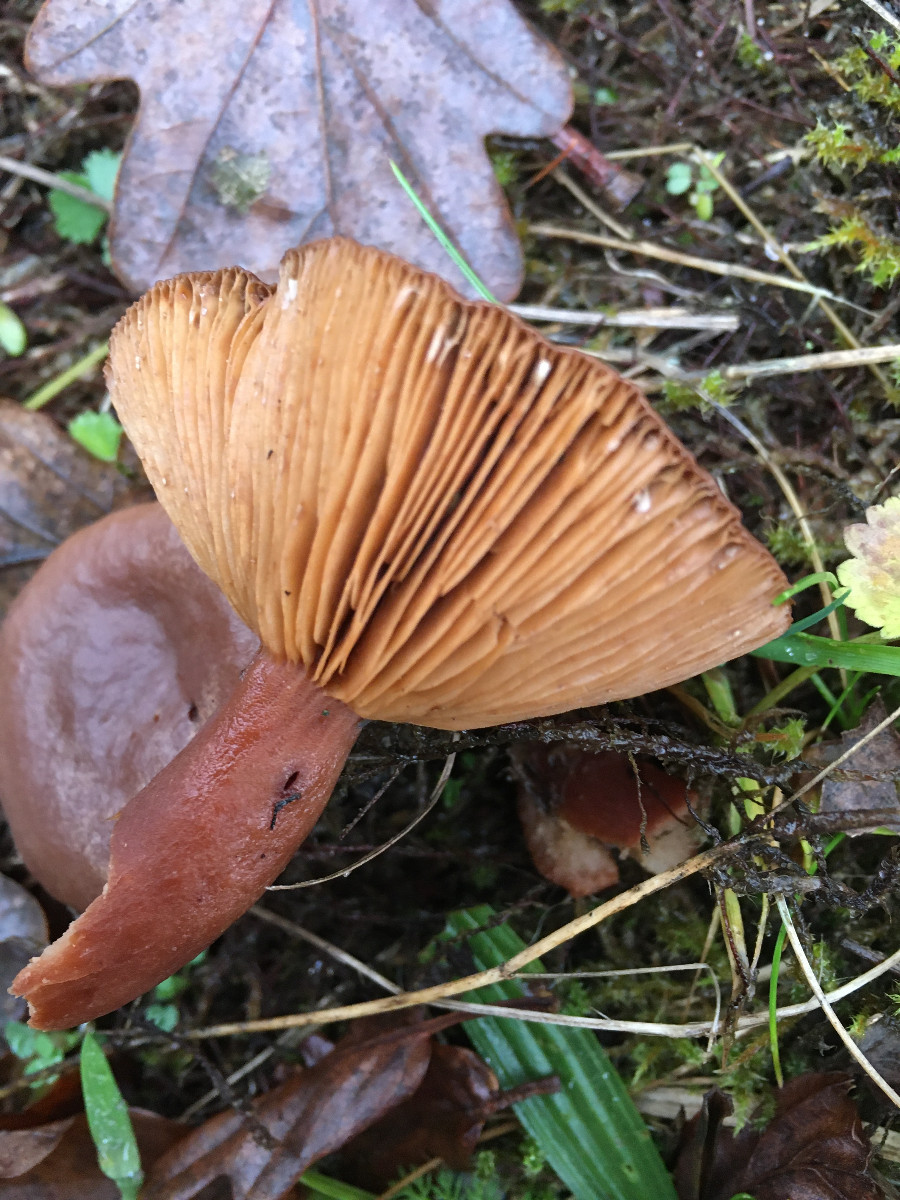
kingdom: Fungi
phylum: Basidiomycota
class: Agaricomycetes
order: Russulales
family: Russulaceae
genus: Lactarius
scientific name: Lactarius hepaticus
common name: leverbrun mælkehat
